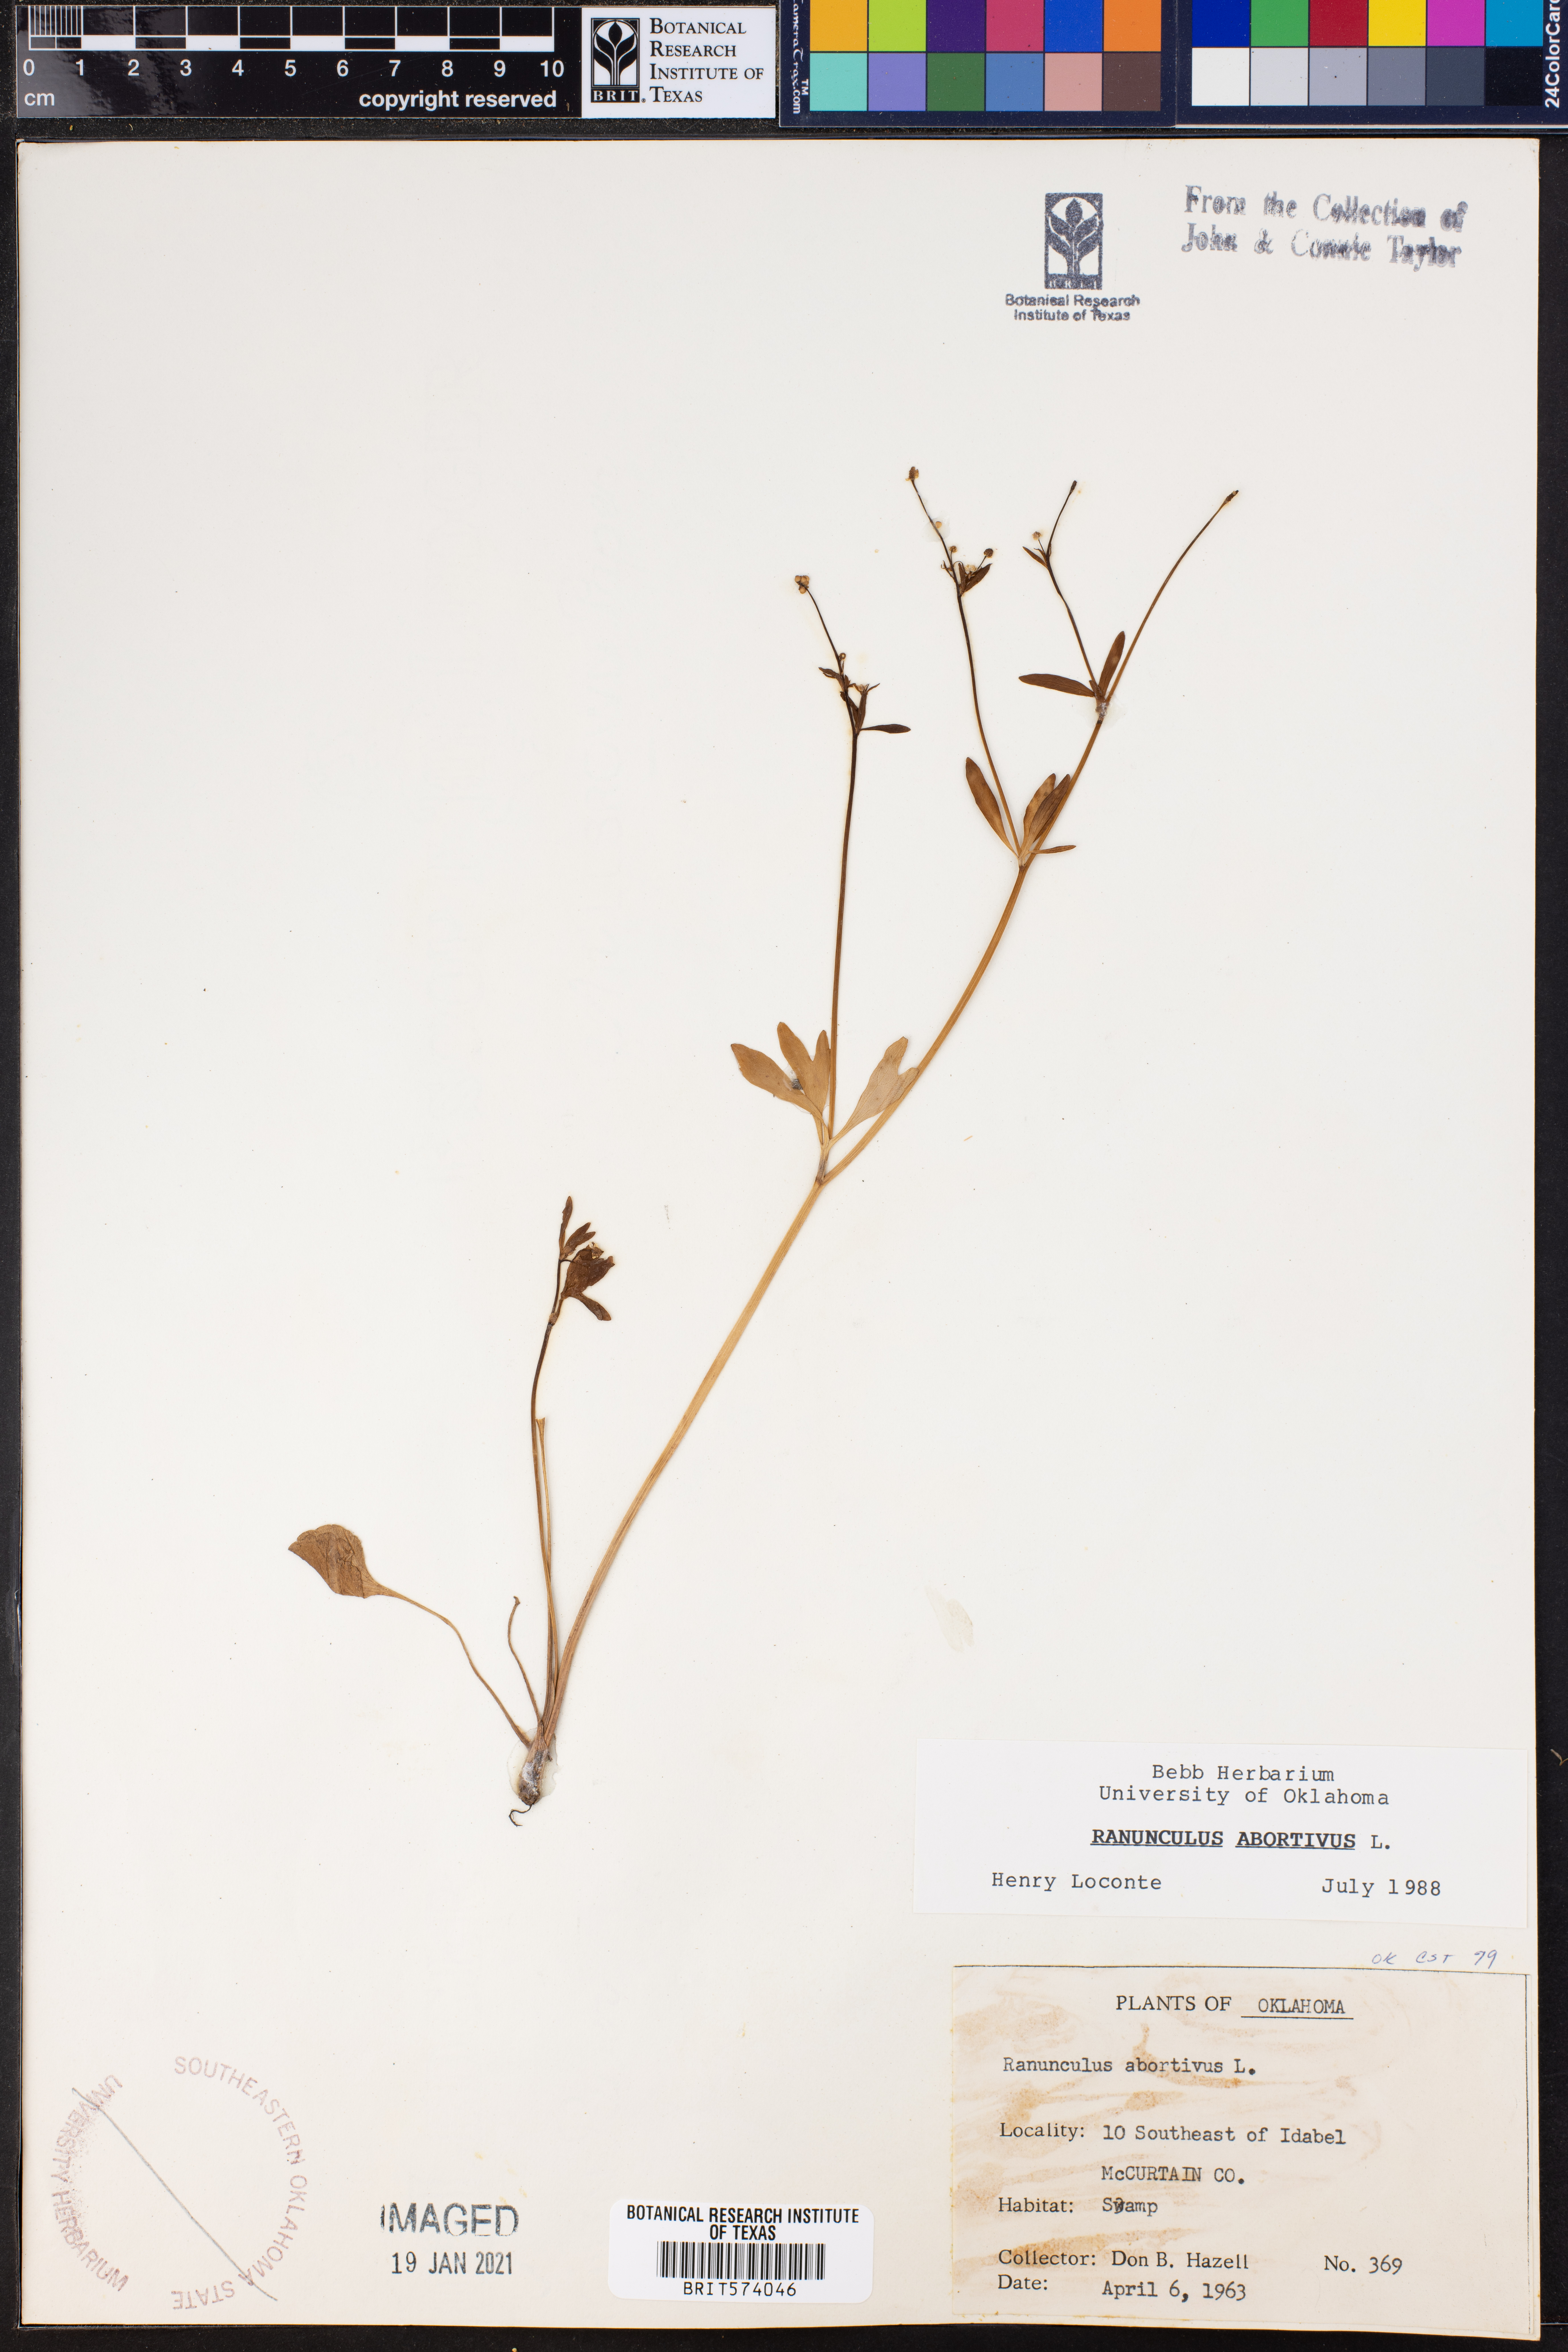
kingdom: Plantae
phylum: Tracheophyta
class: Magnoliopsida
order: Ranunculales
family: Ranunculaceae
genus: Ranunculus
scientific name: Ranunculus abortivus
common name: Early wood buttercup
